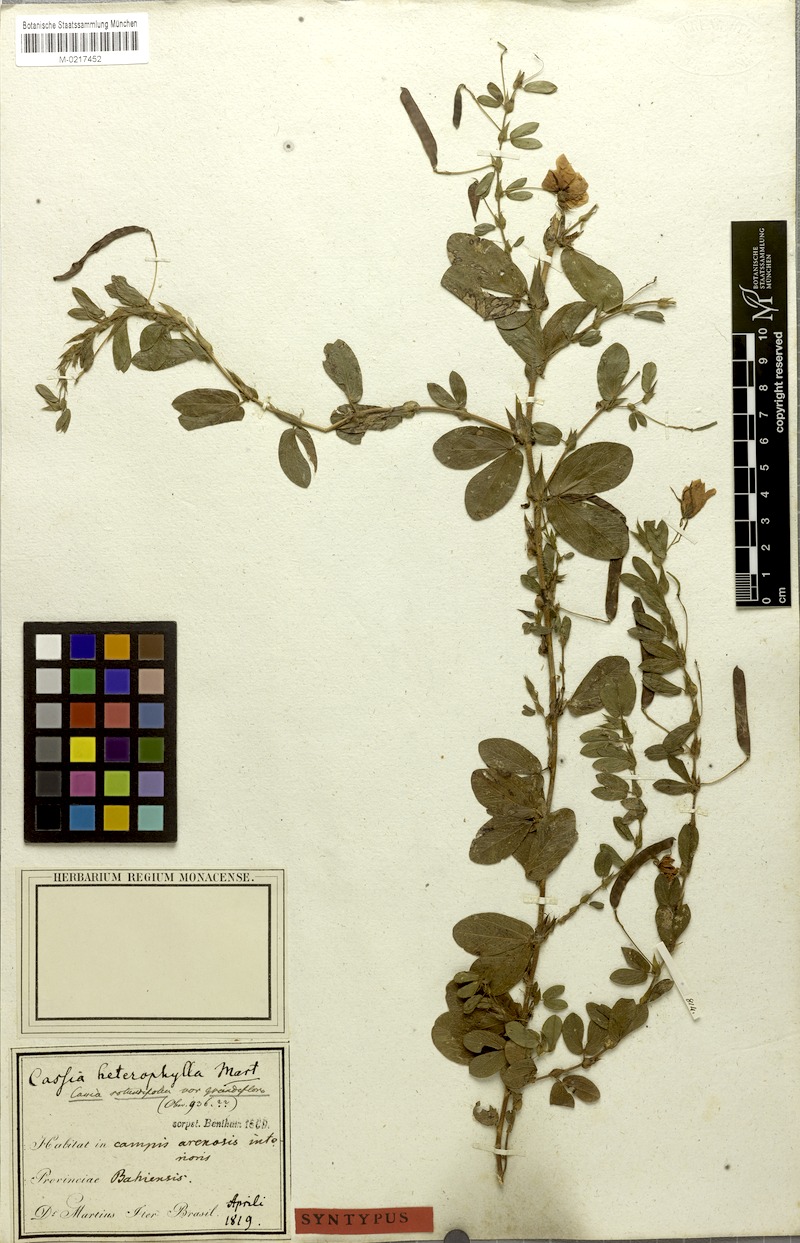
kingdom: Plantae
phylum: Tracheophyta
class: Magnoliopsida
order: Fabales
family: Fabaceae
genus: Chamaecrista
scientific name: Chamaecrista rotundifolia
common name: Round-leaf cassia
